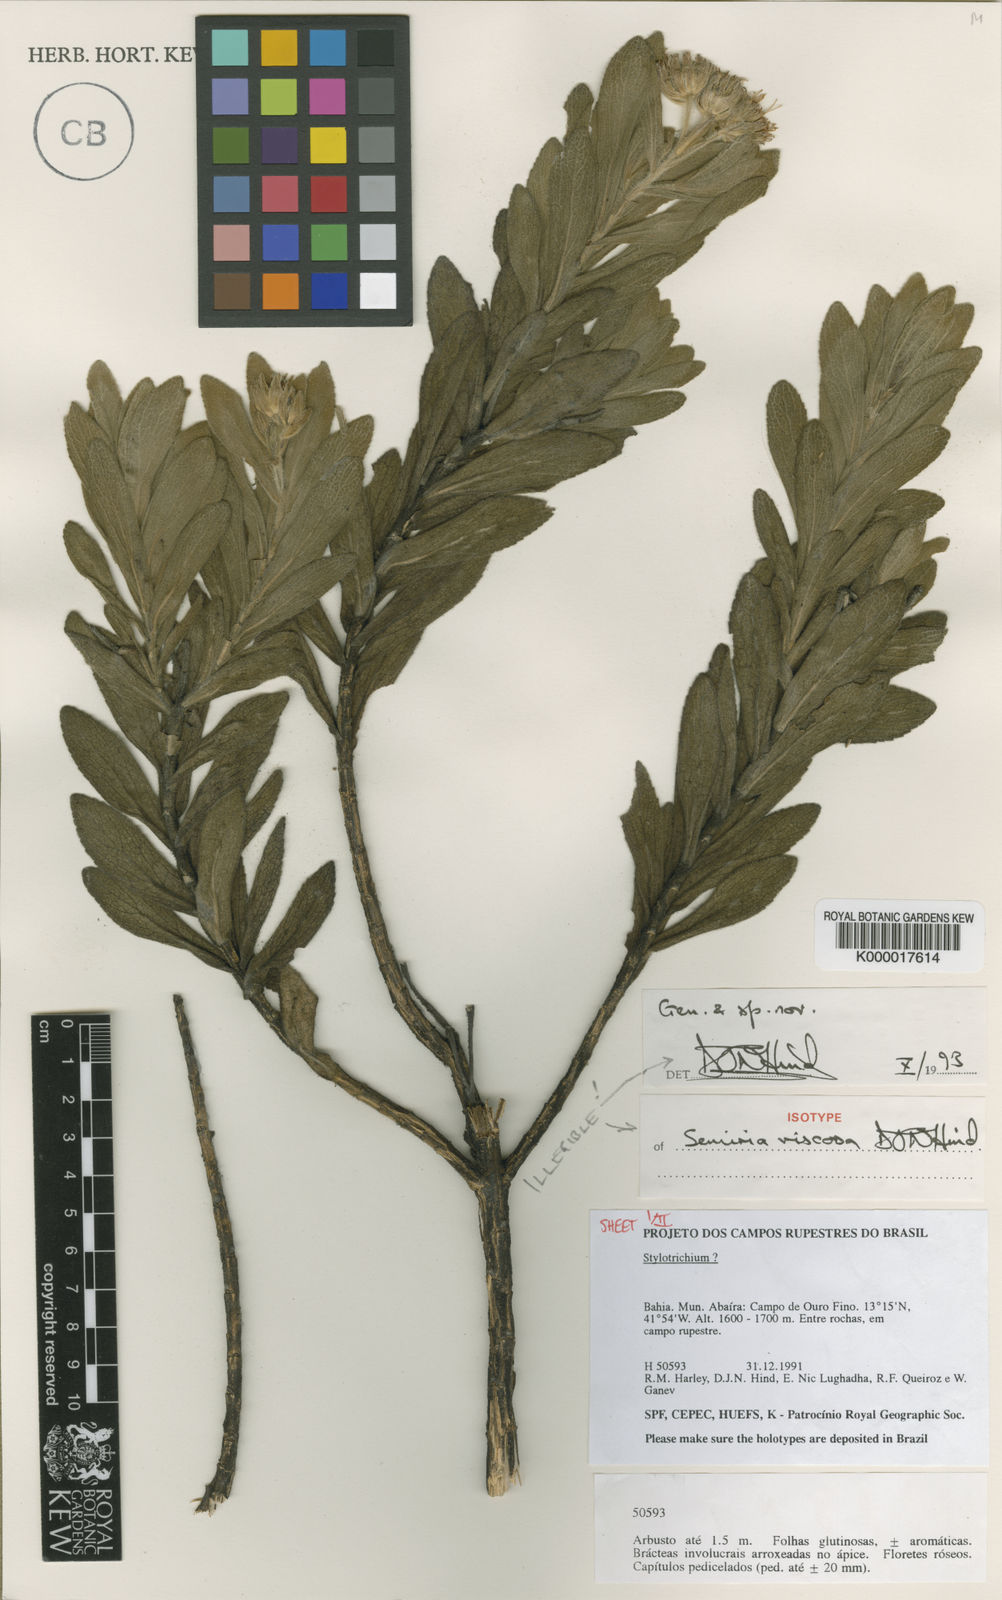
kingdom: Plantae
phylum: Tracheophyta
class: Magnoliopsida
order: Asterales
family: Asteraceae
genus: Semiria
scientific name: Semiria viscosa
